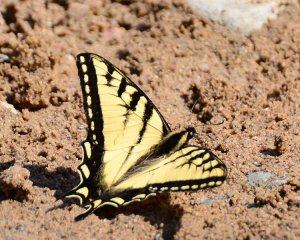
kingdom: Animalia
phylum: Arthropoda
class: Insecta
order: Lepidoptera
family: Papilionidae
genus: Pterourus
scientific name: Pterourus canadensis
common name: Canadian Tiger Swallowtail
